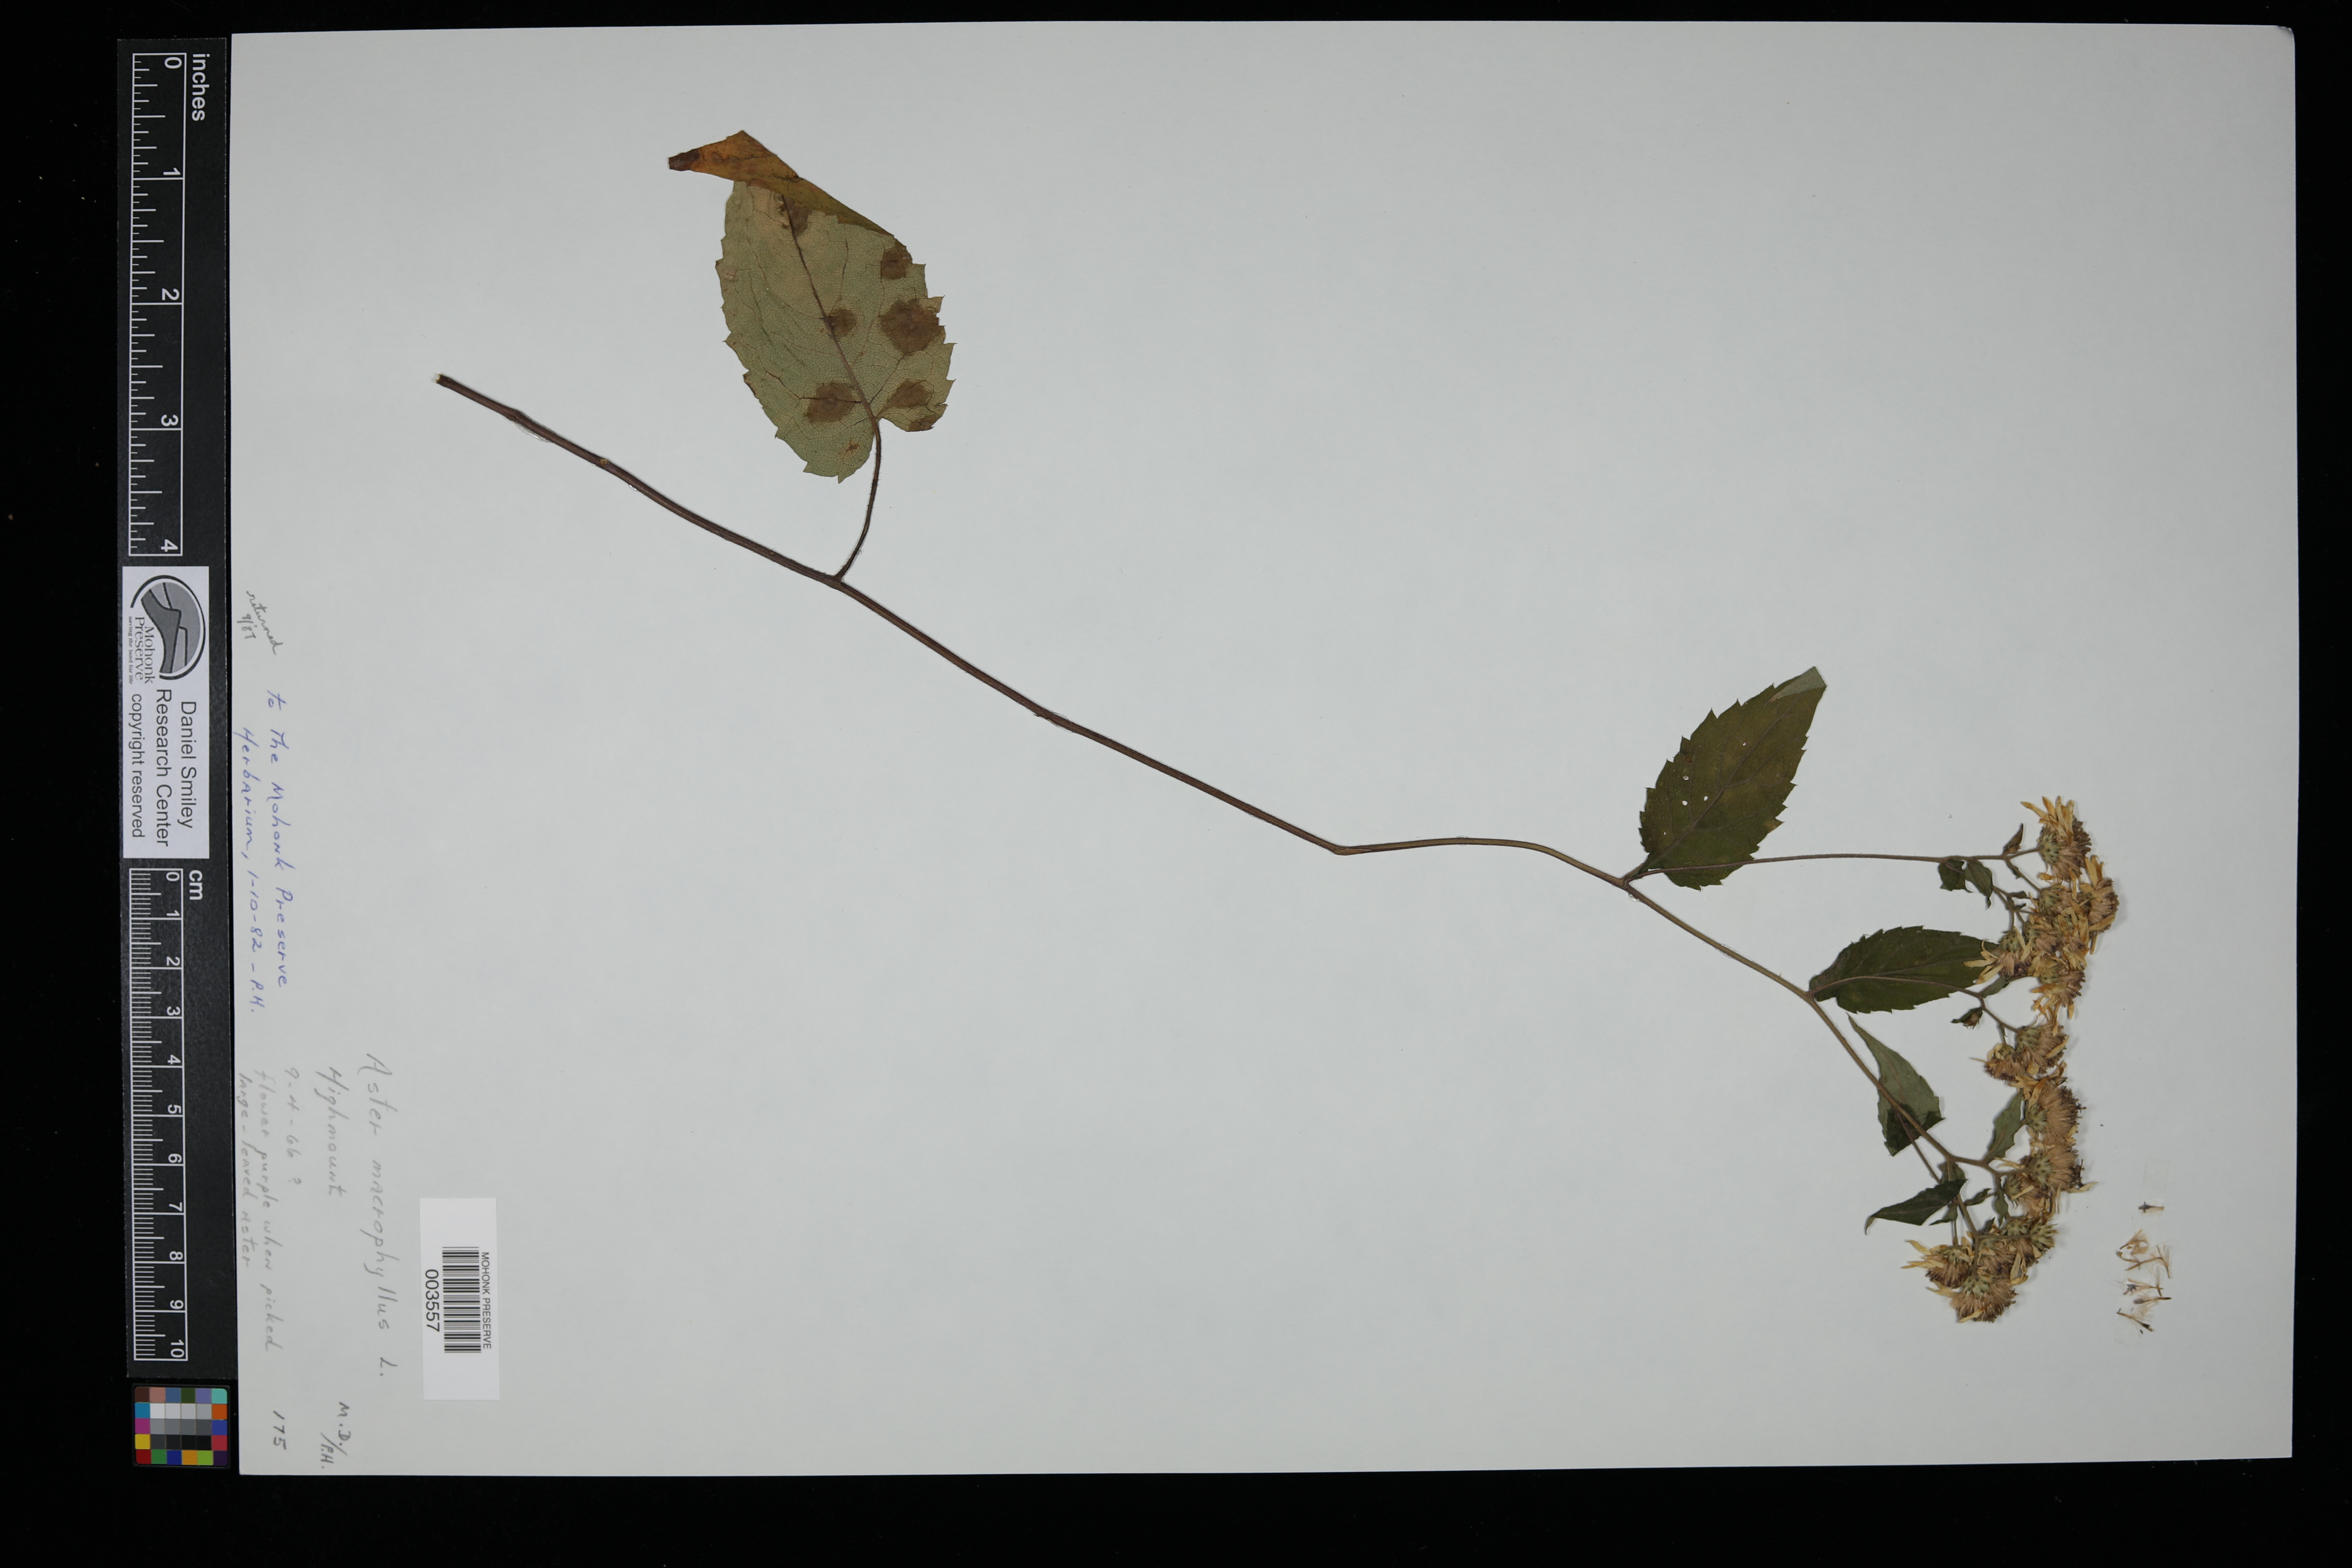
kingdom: Plantae
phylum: Tracheophyta
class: Magnoliopsida
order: Asterales
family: Asteraceae
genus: Eurybia
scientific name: Eurybia macrophylla
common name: Big-leaved aster
